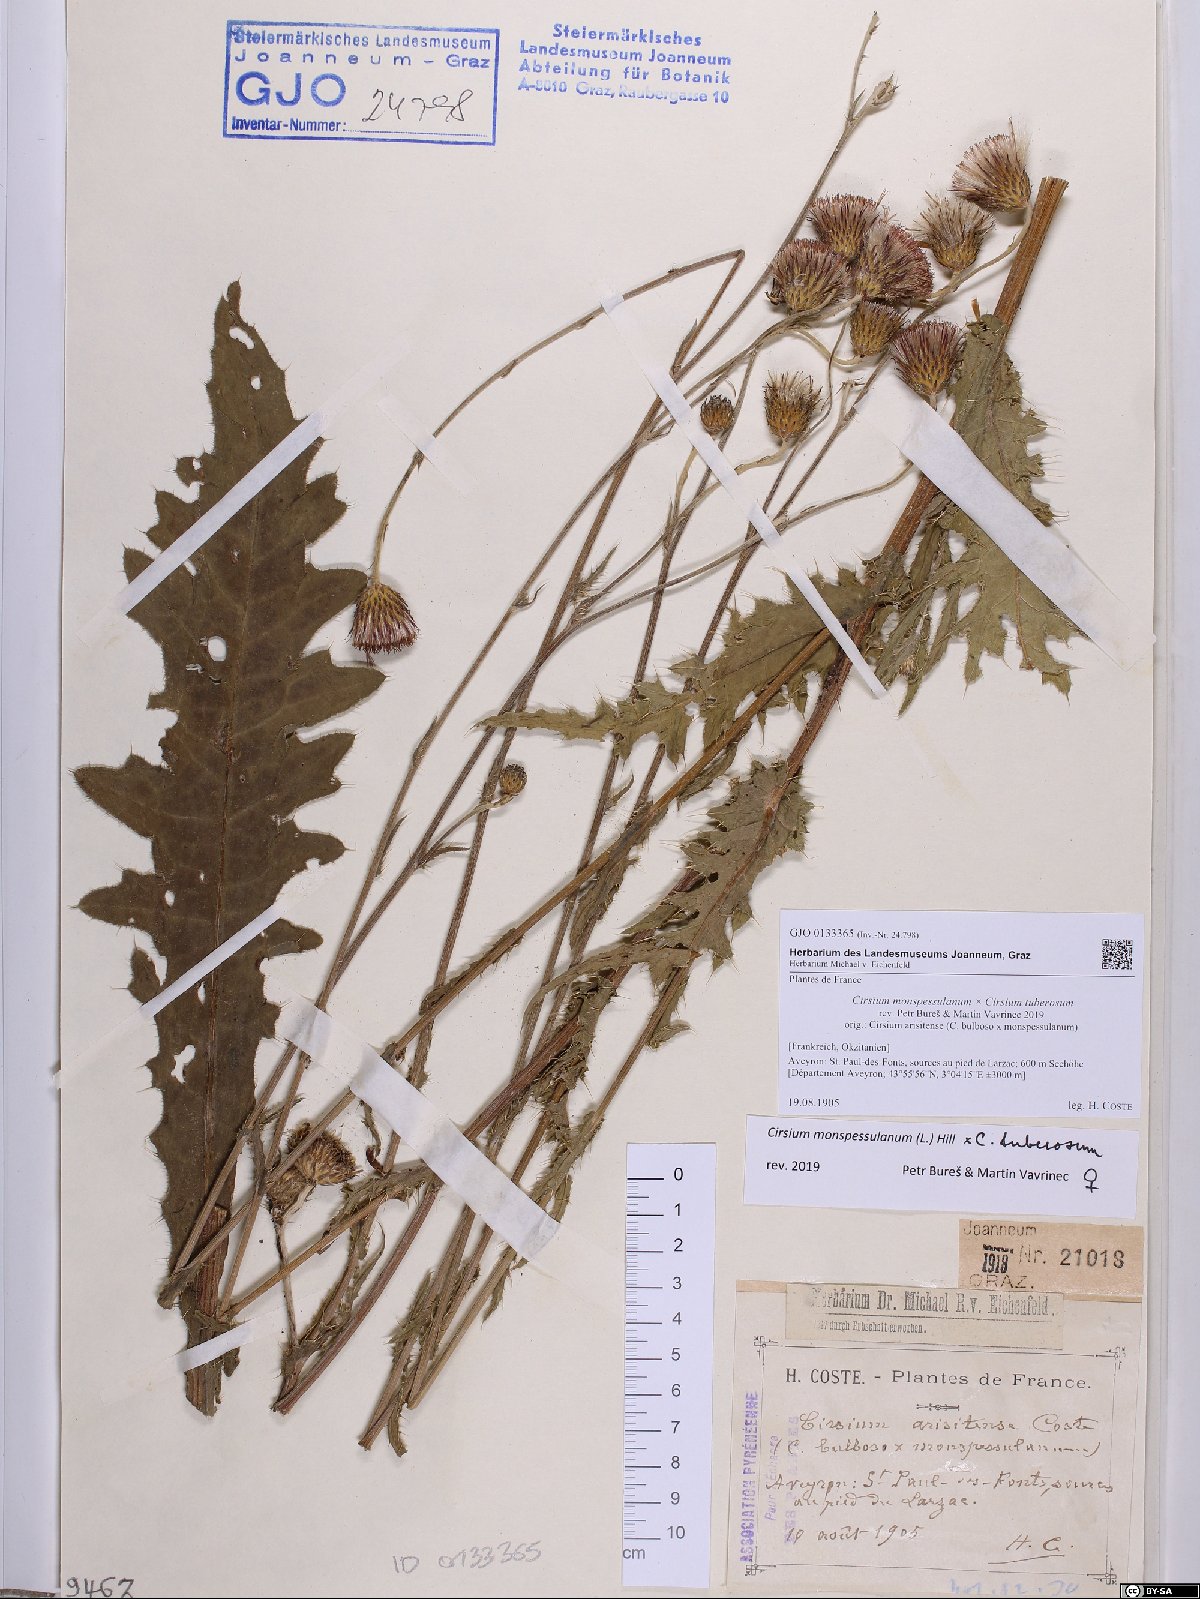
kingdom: Plantae
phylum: Tracheophyta
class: Magnoliopsida
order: Asterales
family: Asteraceae
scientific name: Asteraceae
